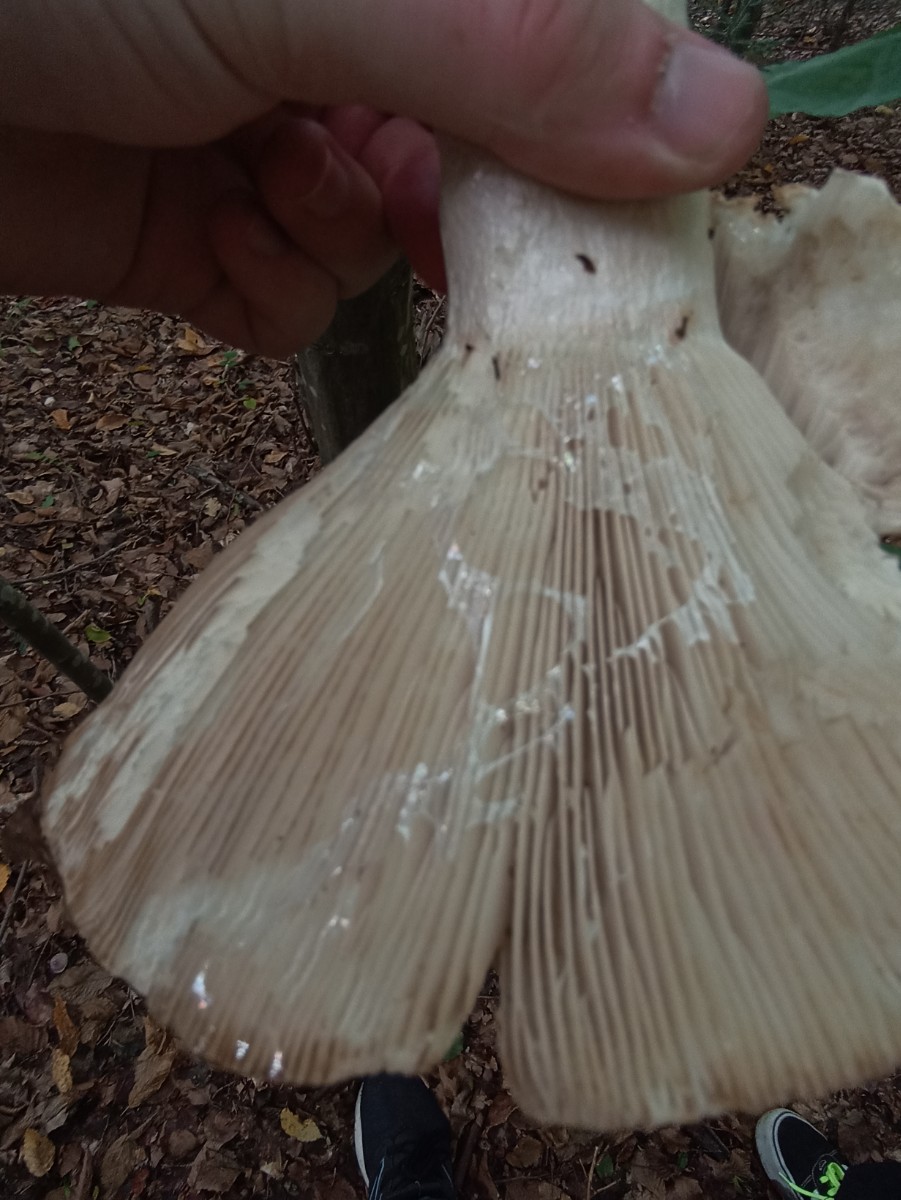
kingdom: Fungi
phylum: Basidiomycota
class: Agaricomycetes
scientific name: Agaricomycetes
